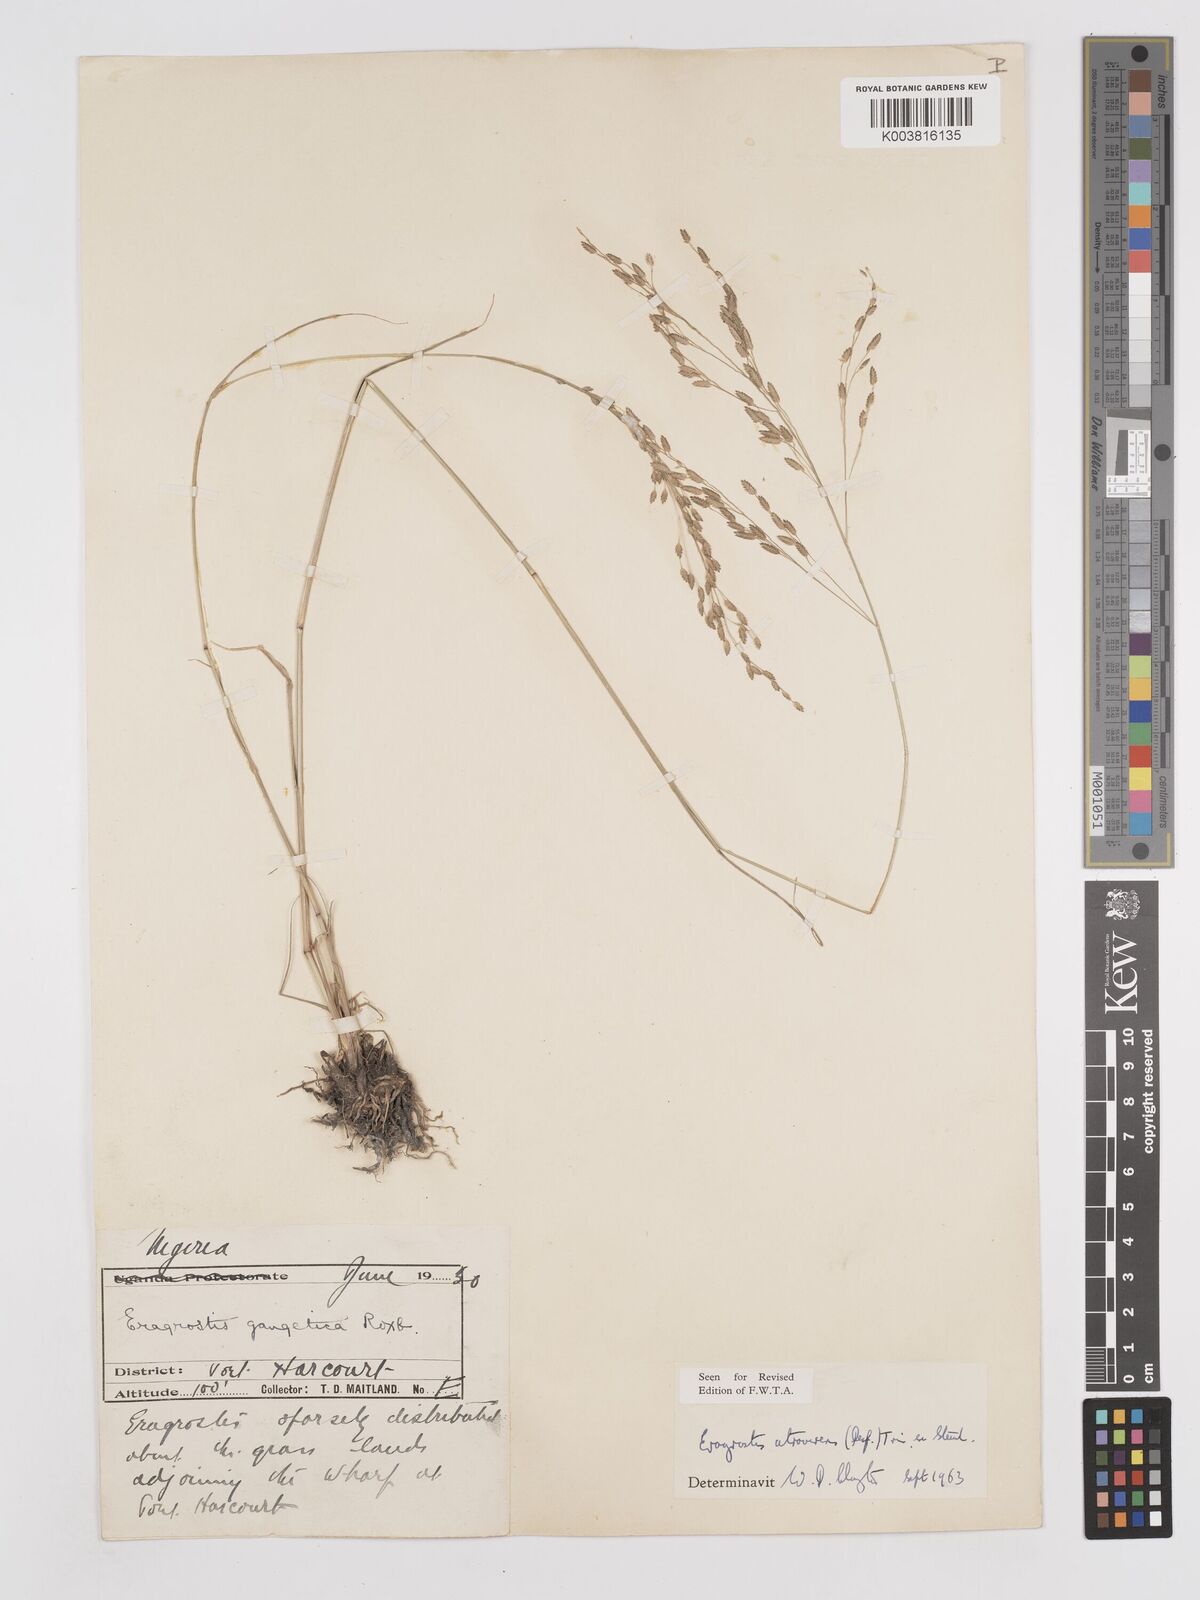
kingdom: Plantae
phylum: Tracheophyta
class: Liliopsida
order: Poales
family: Poaceae
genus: Eragrostis
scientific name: Eragrostis atrovirens
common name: Thalia lovegrass
